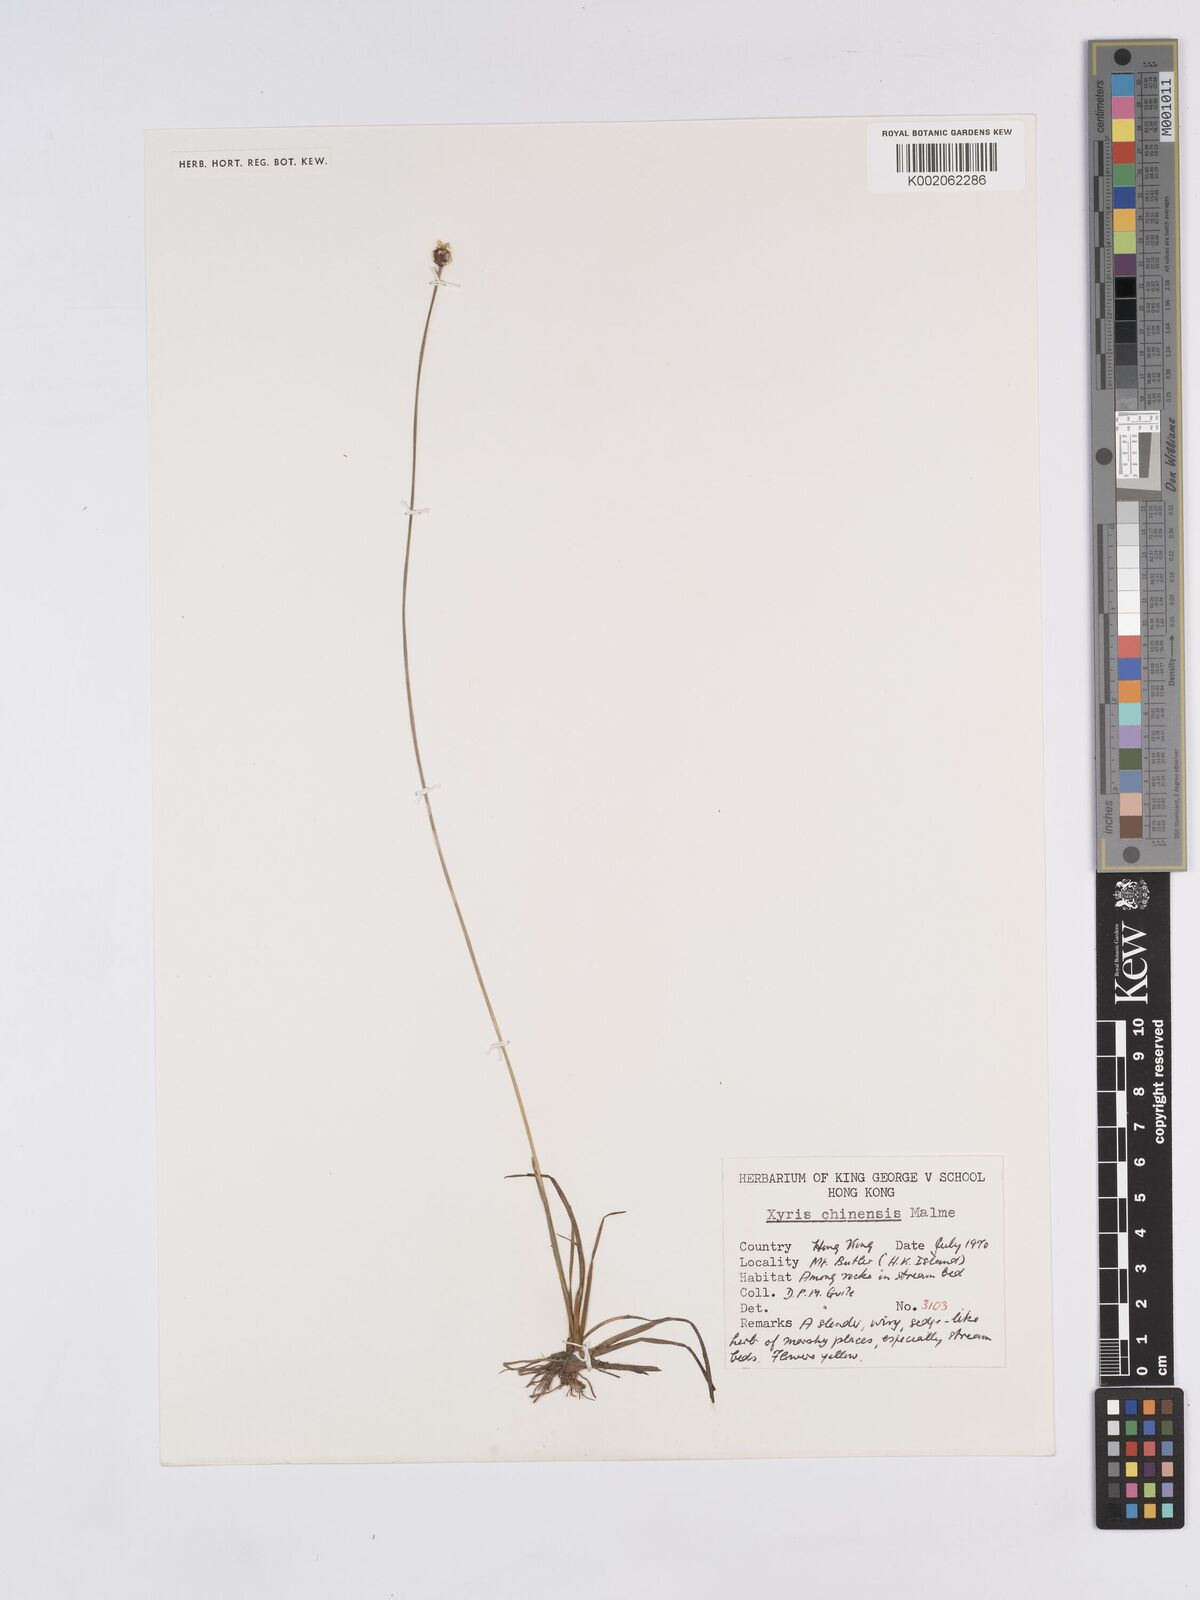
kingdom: Plantae
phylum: Tracheophyta
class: Liliopsida
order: Poales
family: Xyridaceae
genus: Xyris
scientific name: Xyris bancana
